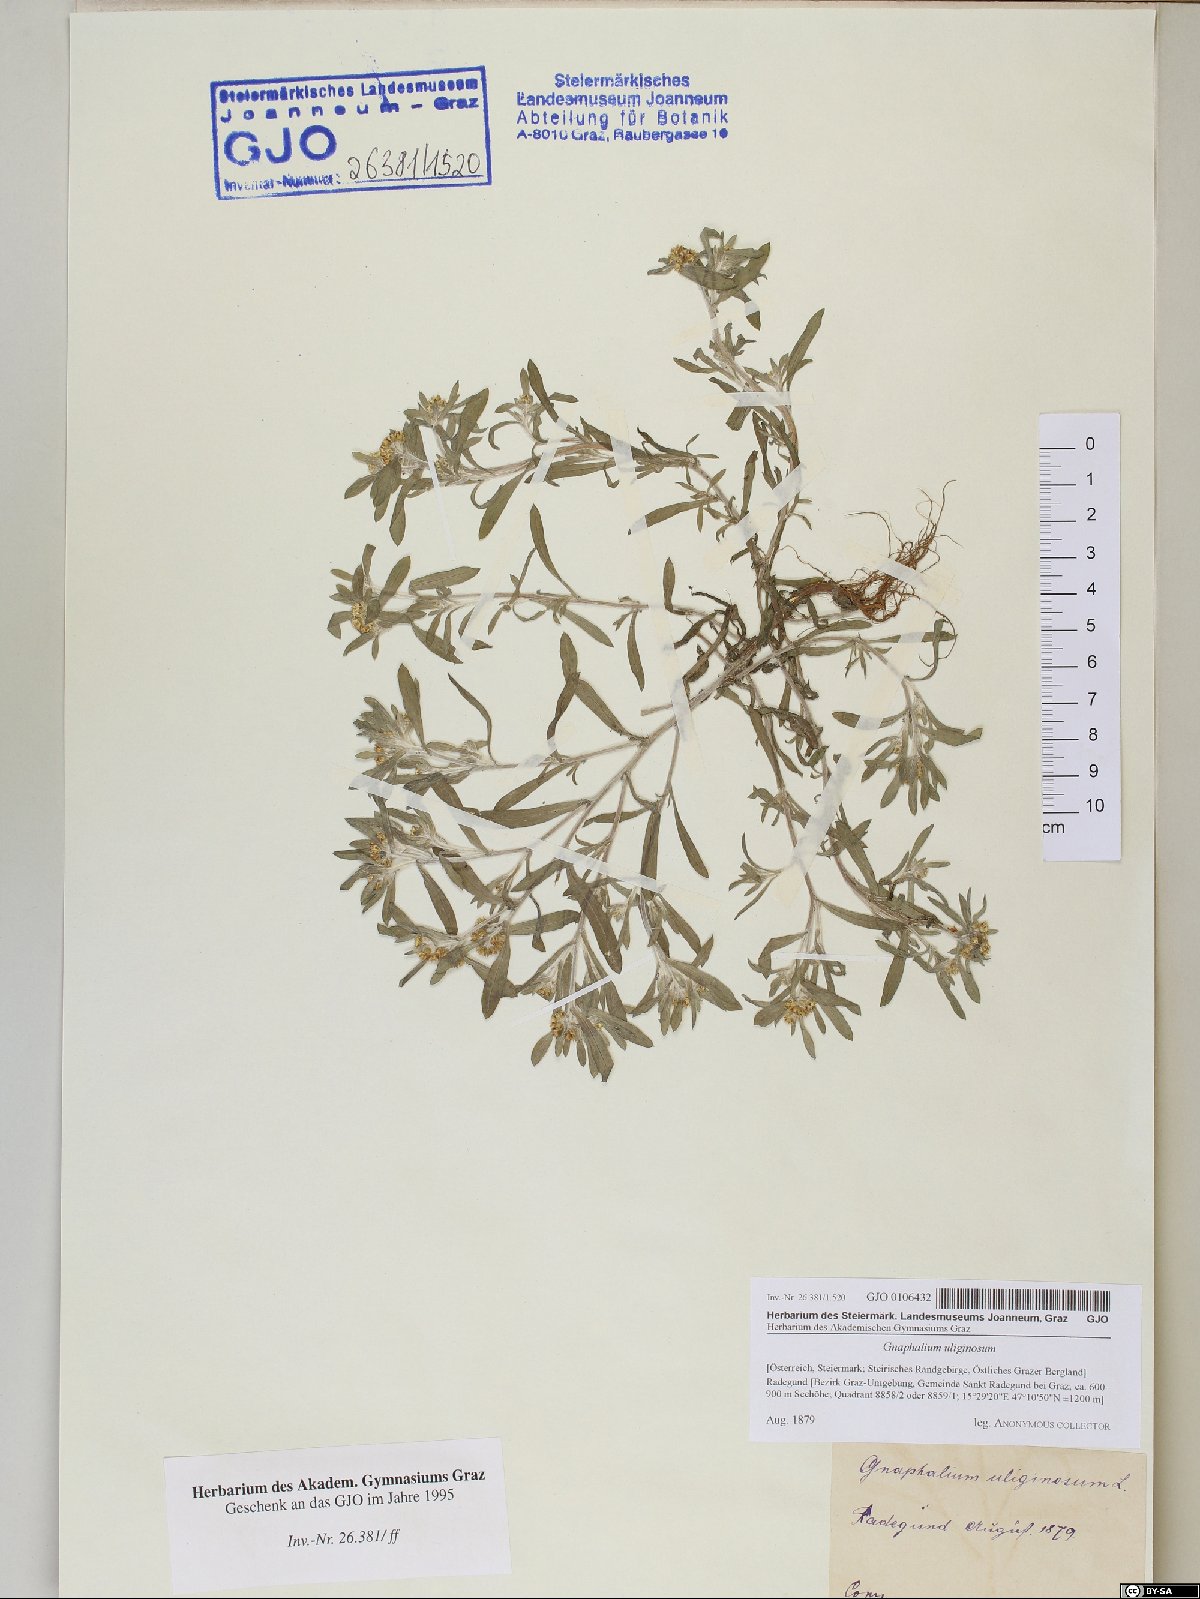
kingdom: Plantae
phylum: Tracheophyta
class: Magnoliopsida
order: Asterales
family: Asteraceae
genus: Gnaphalium
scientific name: Gnaphalium uliginosum
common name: Marsh cudweed
